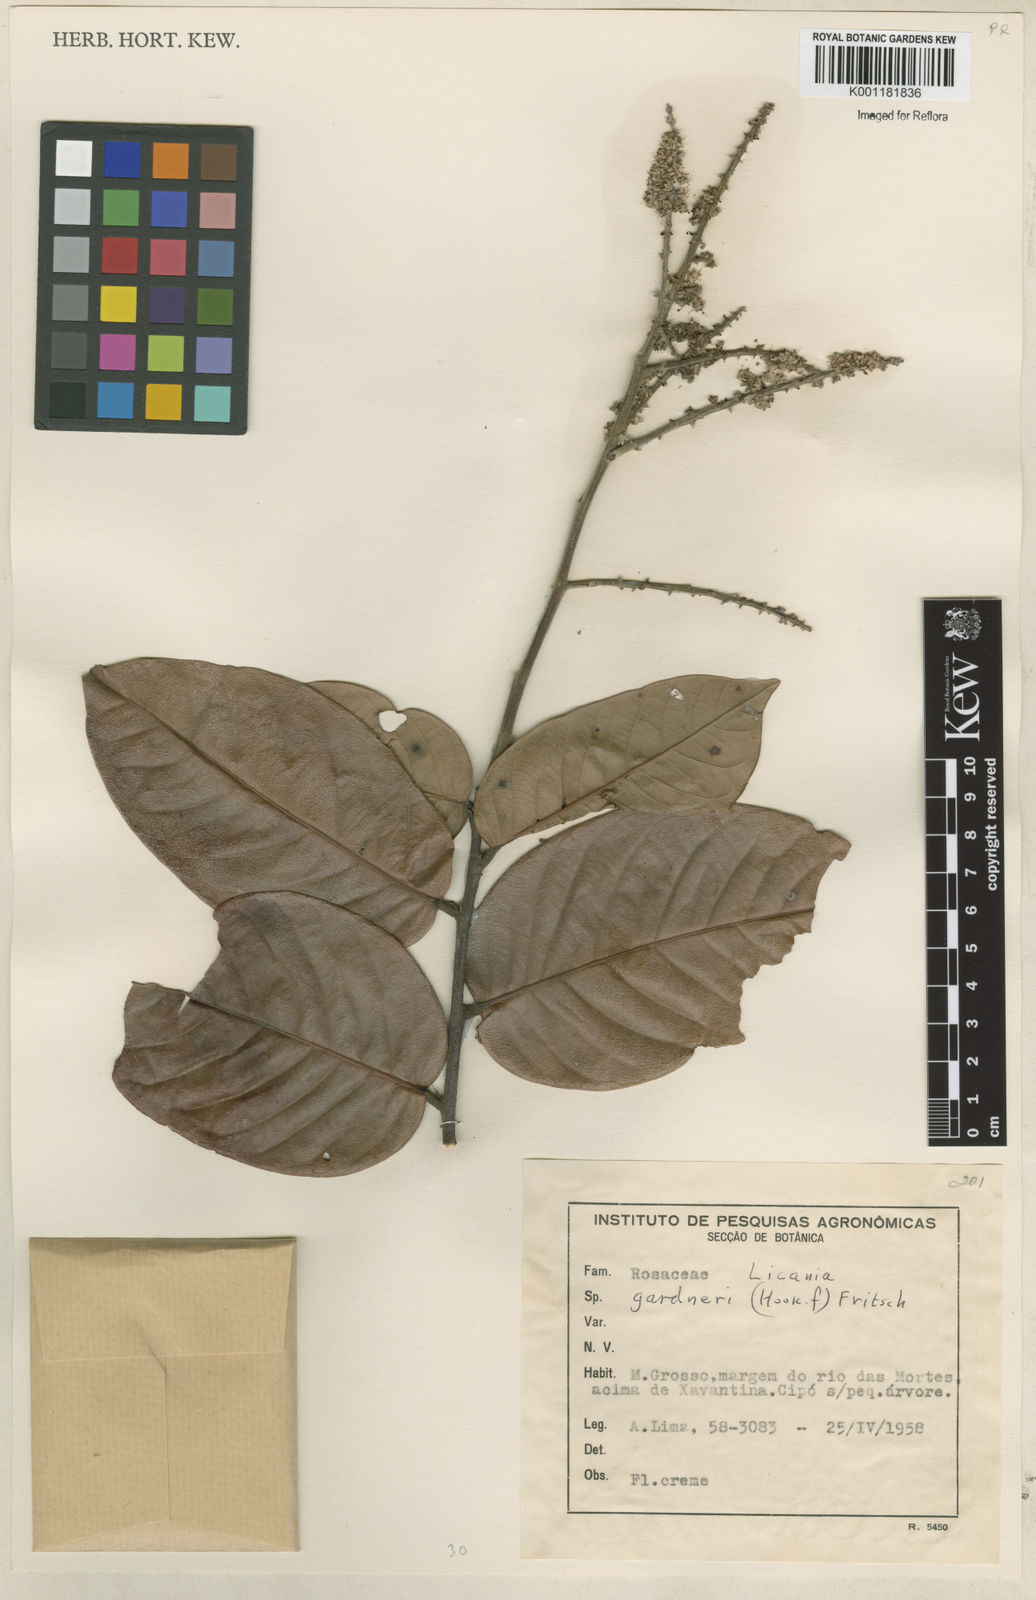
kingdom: Plantae
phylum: Tracheophyta
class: Magnoliopsida
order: Malpighiales
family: Chrysobalanaceae
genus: Leptobalanus
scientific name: Leptobalanus gardneri
